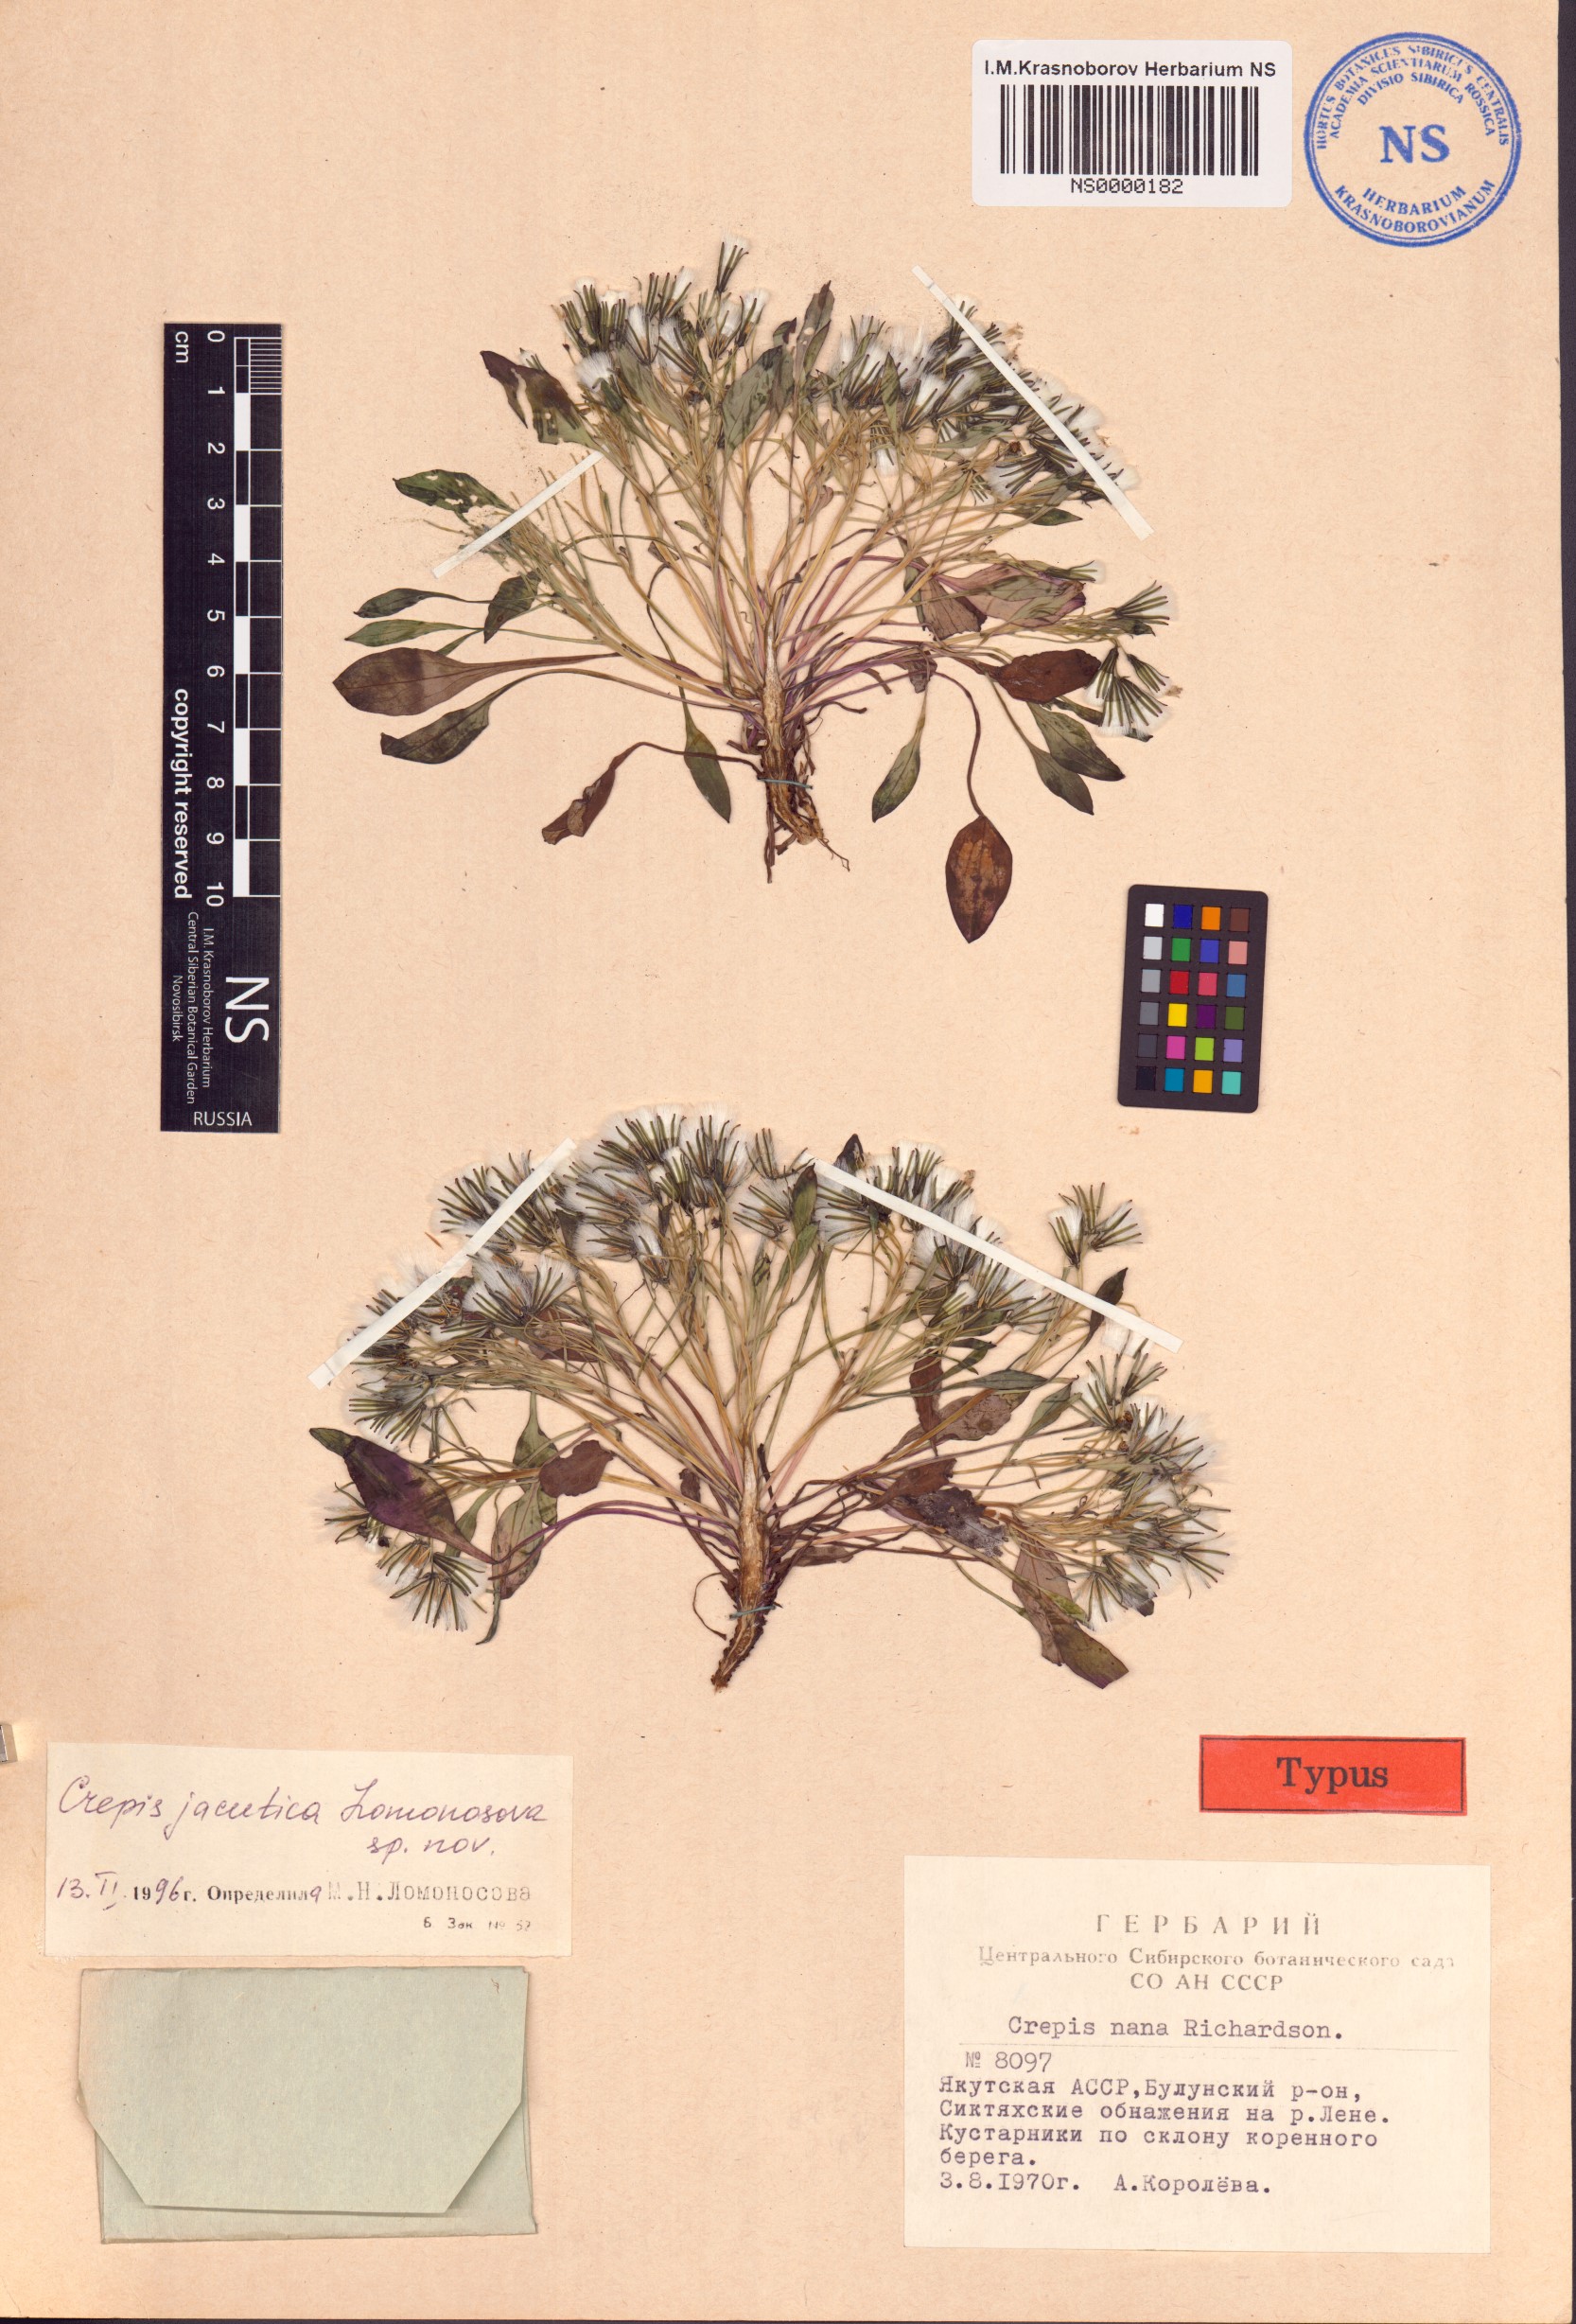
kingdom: Plantae
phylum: Tracheophyta
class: Magnoliopsida
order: Asterales
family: Asteraceae
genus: Askellia
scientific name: Askellia jacutica
